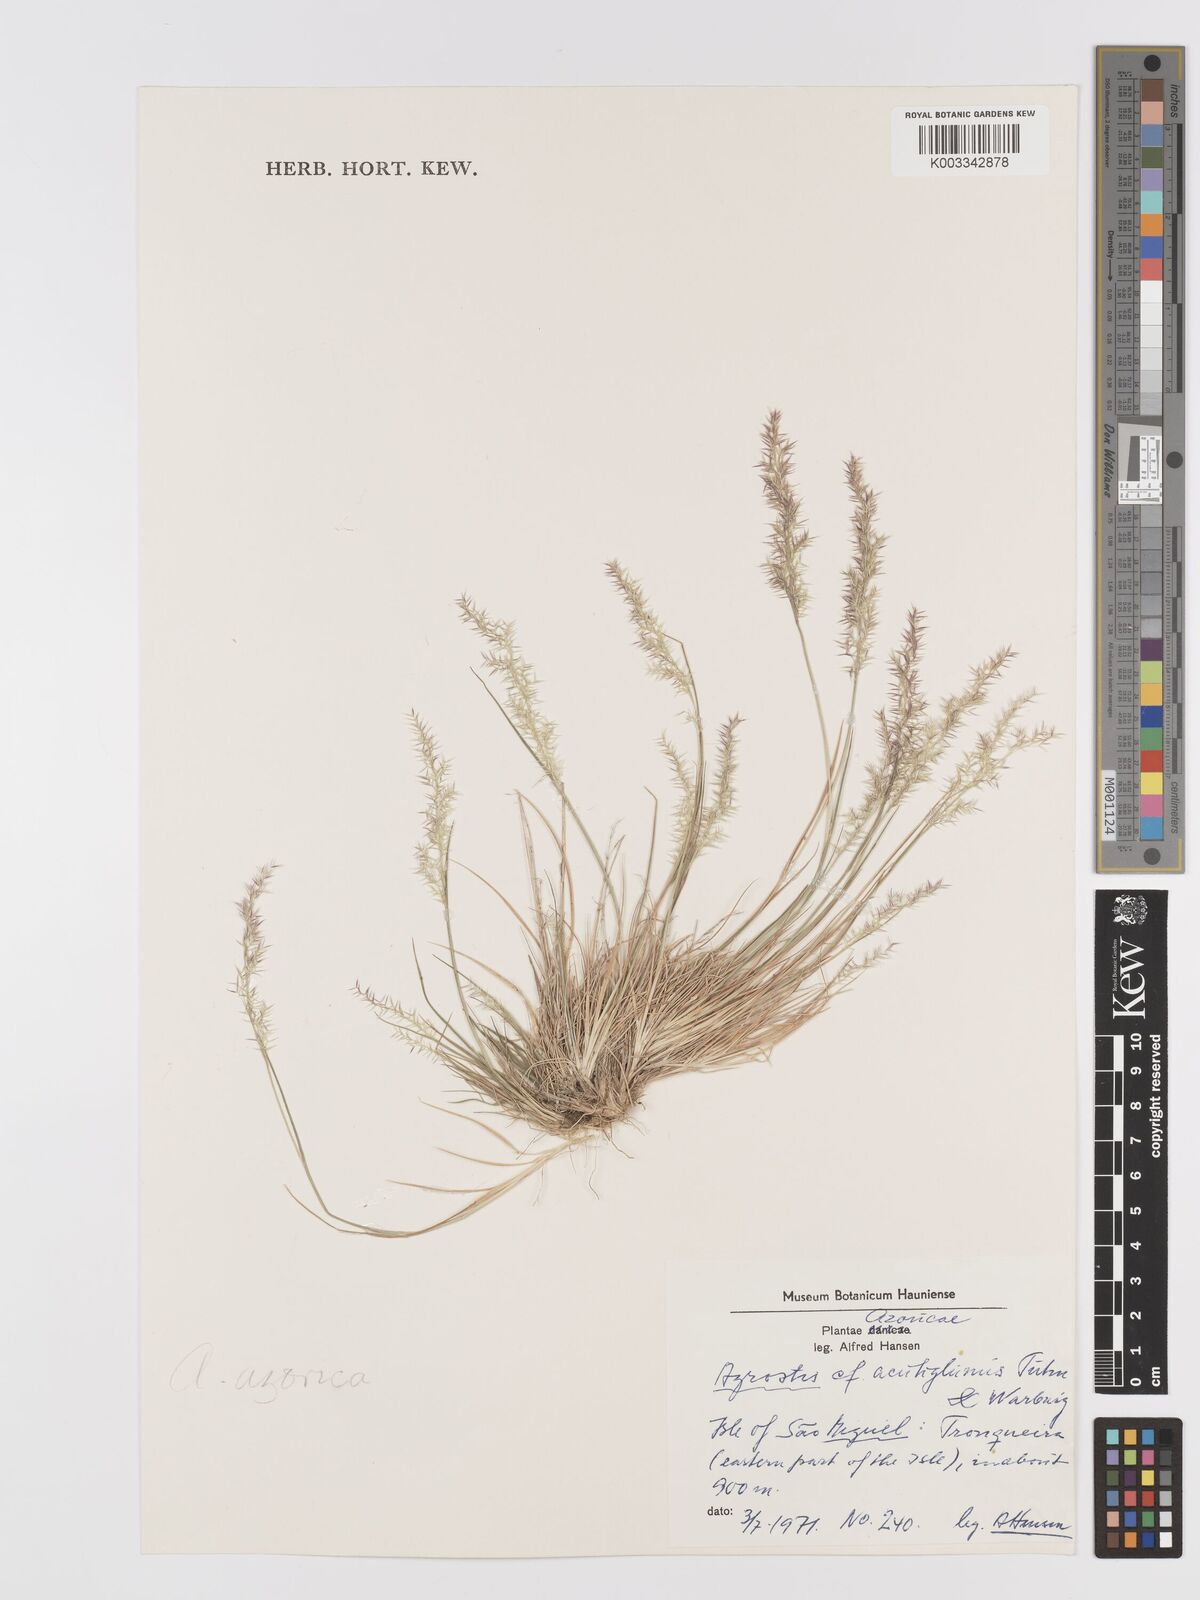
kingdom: Plantae
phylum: Tracheophyta
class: Liliopsida
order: Poales
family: Poaceae
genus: Agrostis
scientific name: Agrostis castellana
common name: Highland bent
